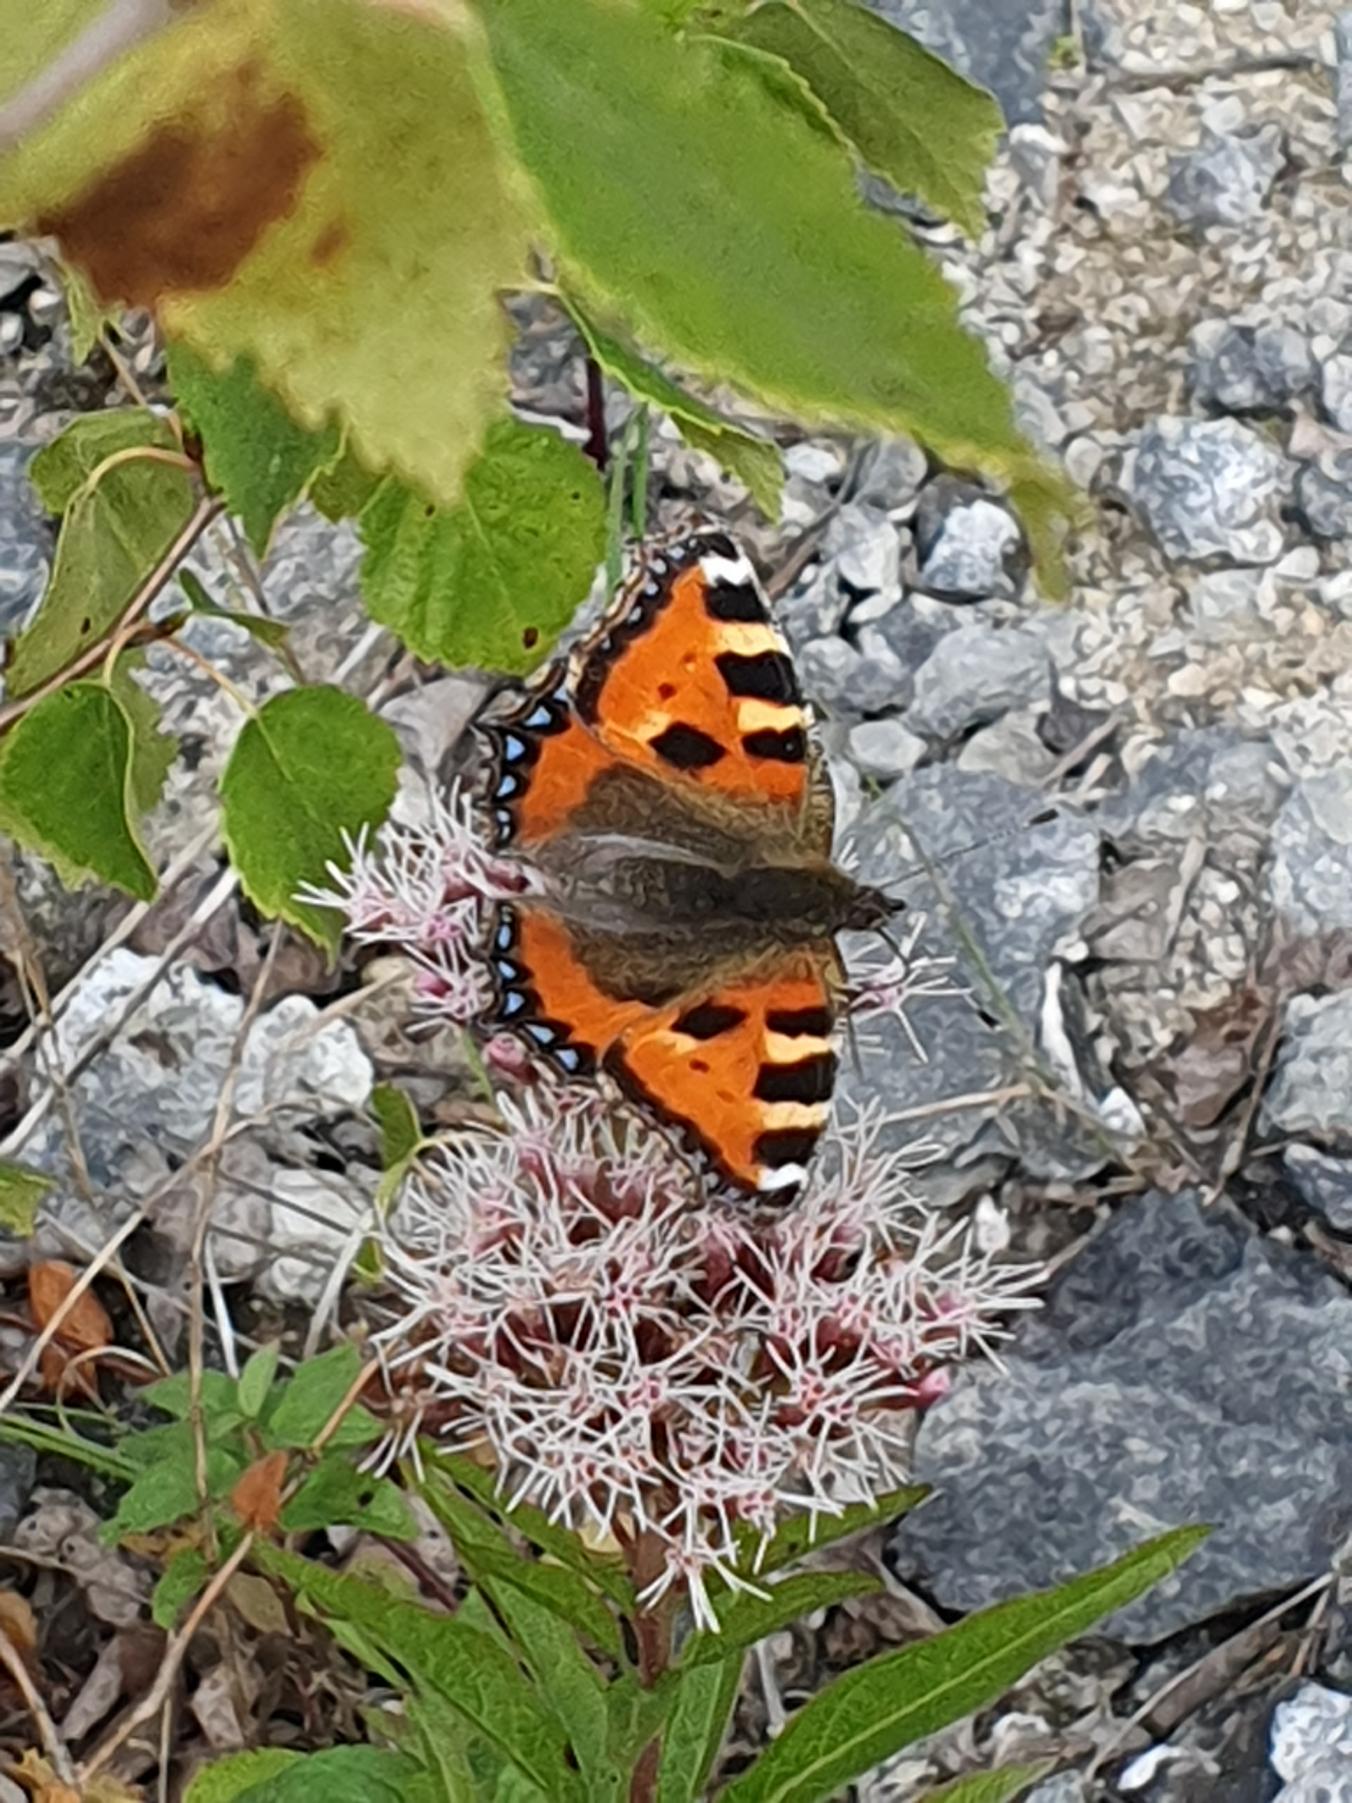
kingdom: Animalia
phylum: Arthropoda
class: Insecta
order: Lepidoptera
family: Nymphalidae
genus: Aglais
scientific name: Aglais urticae
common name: Nældens takvinge
